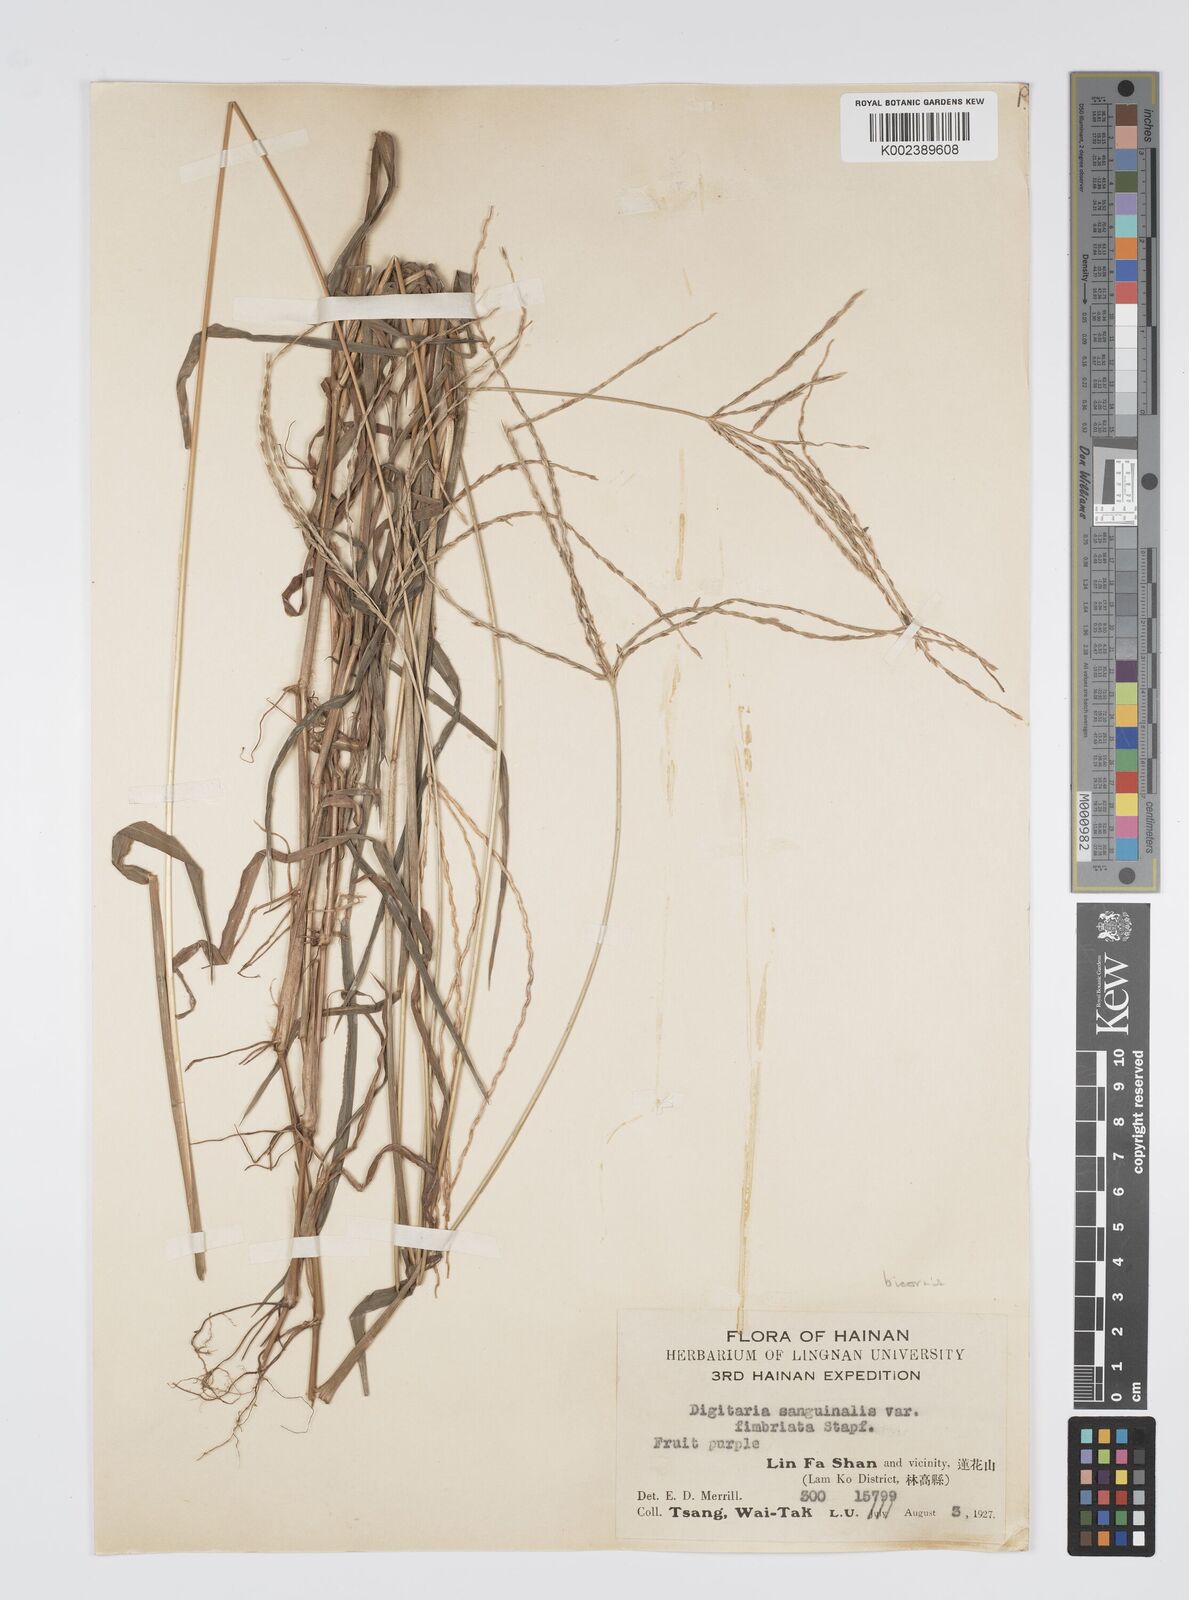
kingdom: Plantae
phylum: Tracheophyta
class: Liliopsida
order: Poales
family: Poaceae
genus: Digitaria
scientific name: Digitaria ciliaris
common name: Tropical finger-grass
